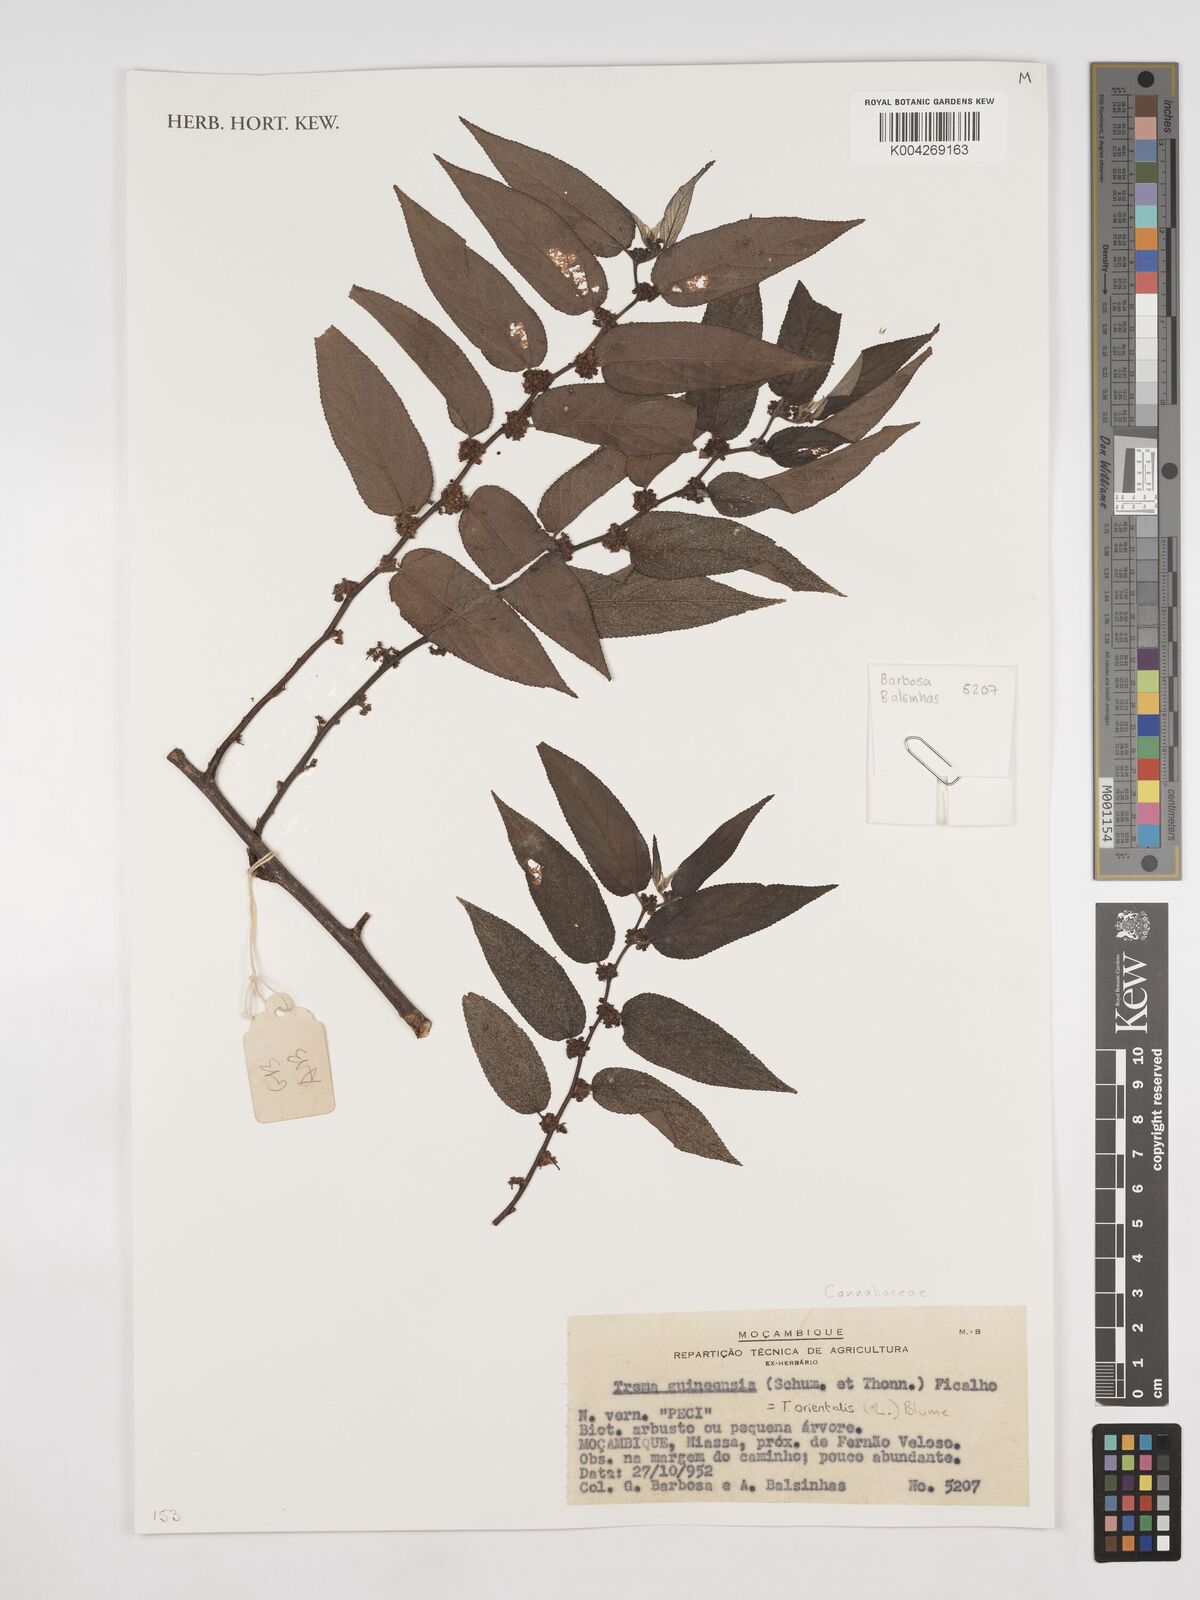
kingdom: Plantae
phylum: Tracheophyta
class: Magnoliopsida
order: Rosales
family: Cannabaceae
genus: Trema
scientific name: Trema orientale
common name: Indian charcoal tree
